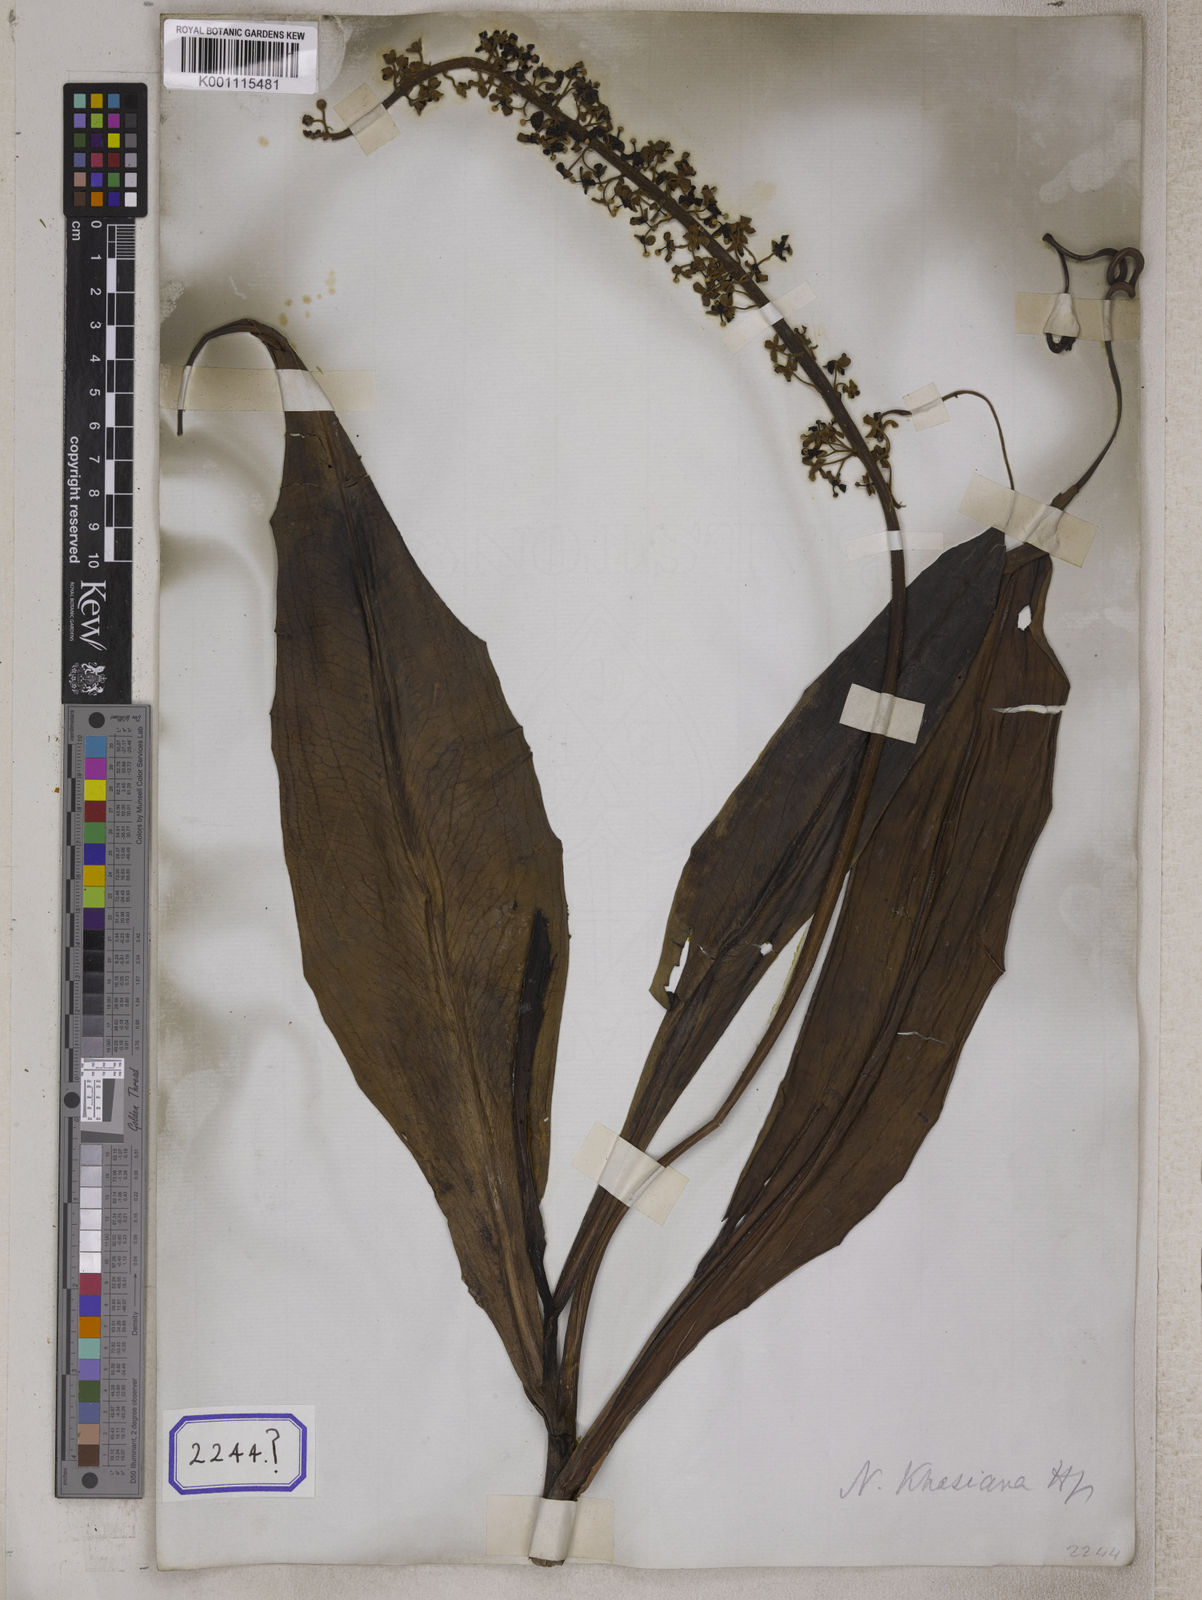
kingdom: Plantae
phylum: Tracheophyta
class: Magnoliopsida
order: Caryophyllales
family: Nepenthaceae
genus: Nepenthes
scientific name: Nepenthes distillatoria
